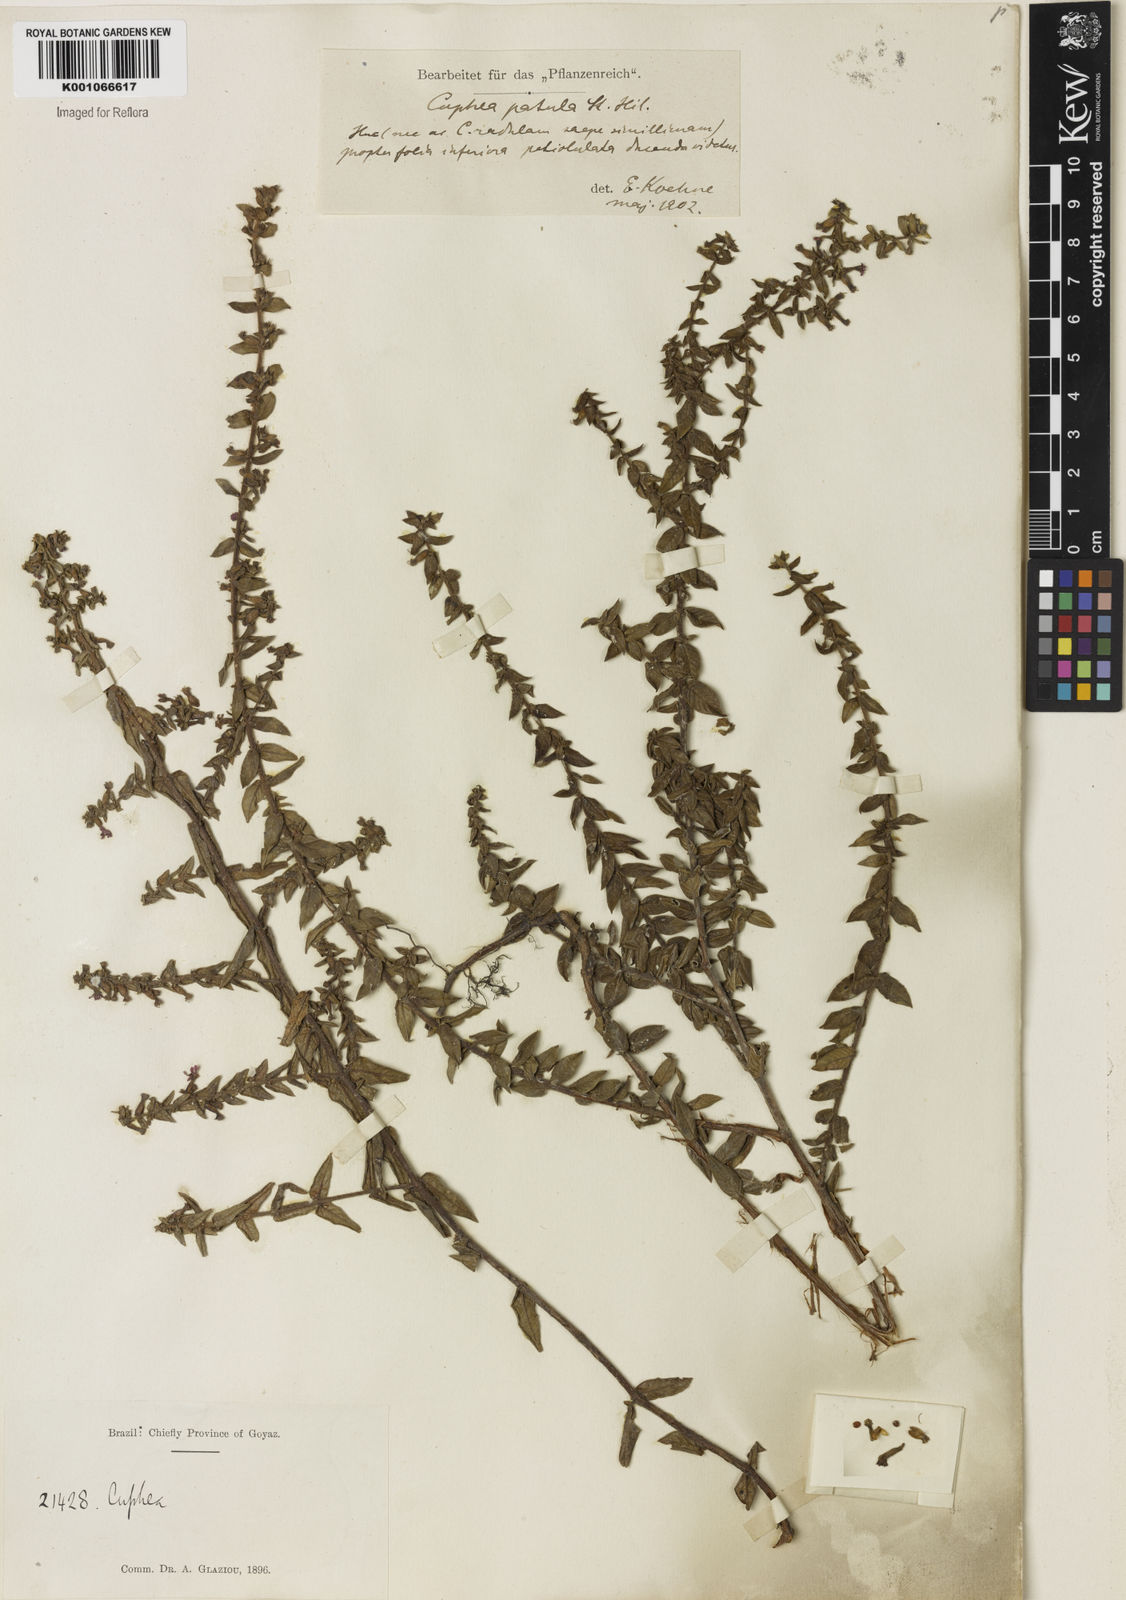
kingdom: Plantae
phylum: Tracheophyta
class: Magnoliopsida
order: Myrtales
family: Lythraceae
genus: Cuphea
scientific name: Cuphea patula
